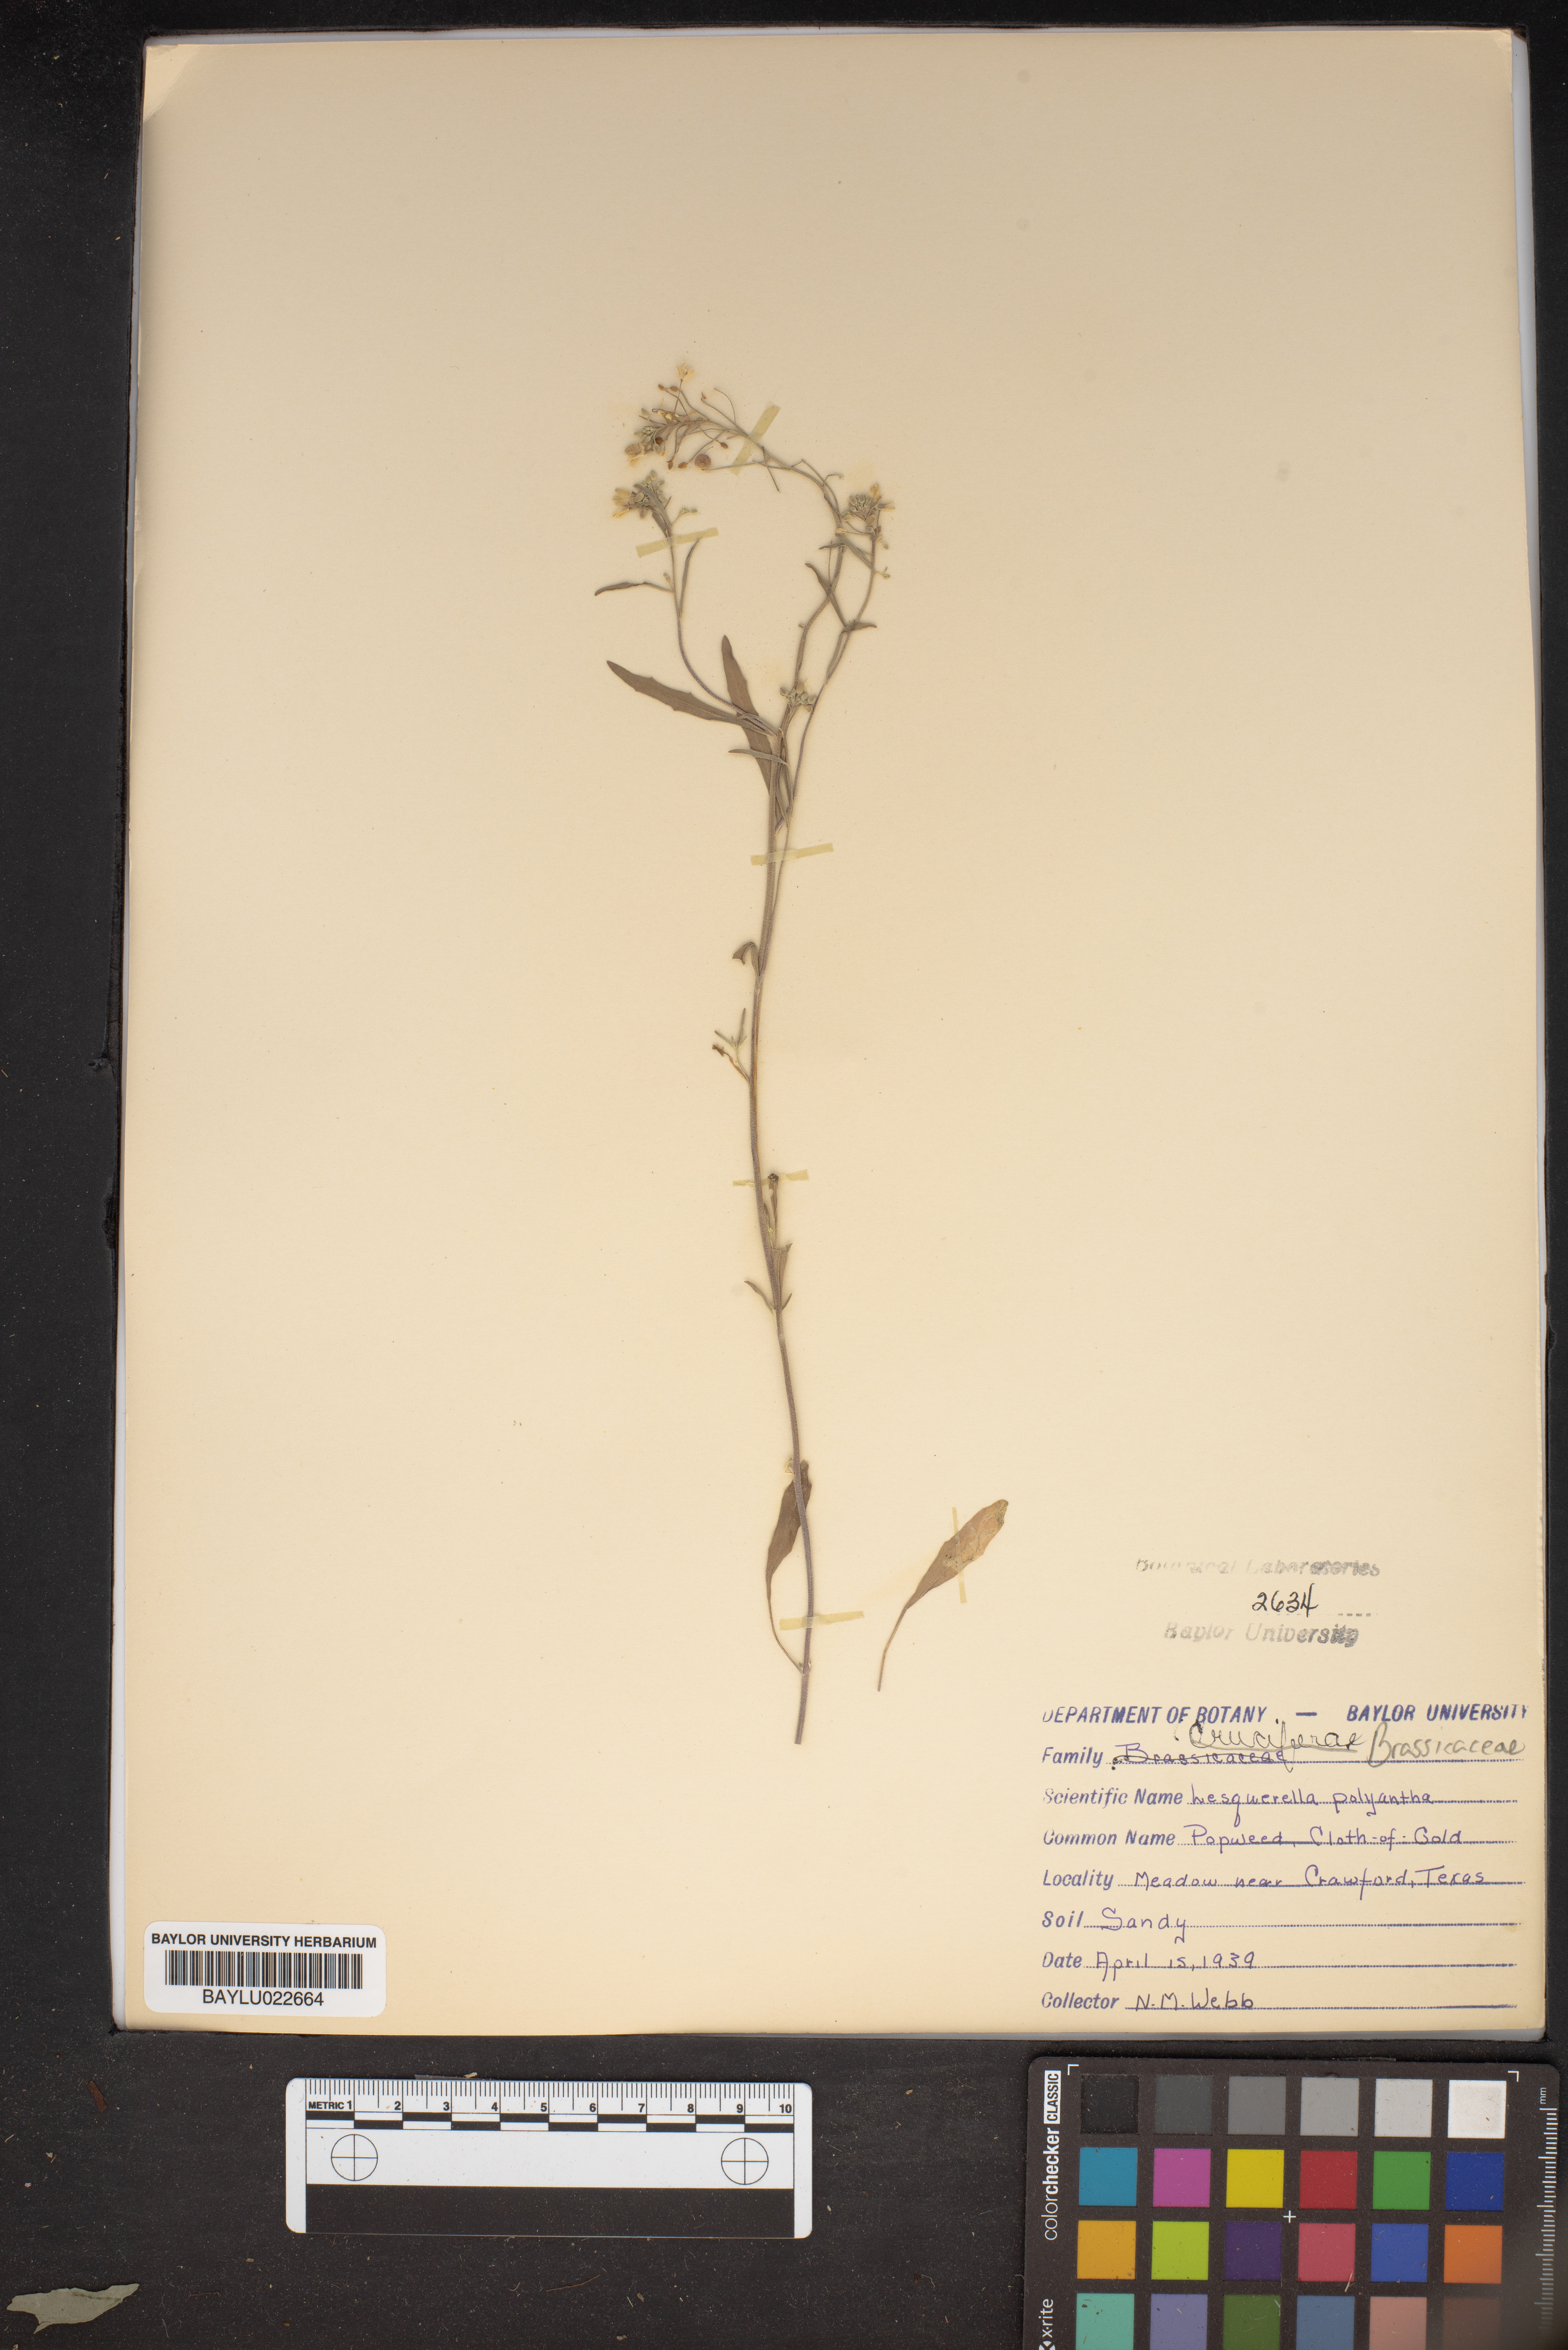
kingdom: Plantae
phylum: Tracheophyta
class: Magnoliopsida
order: Brassicales
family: Brassicaceae
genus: Physaria
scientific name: Physaria gracilis
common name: Spreading bladderpod
